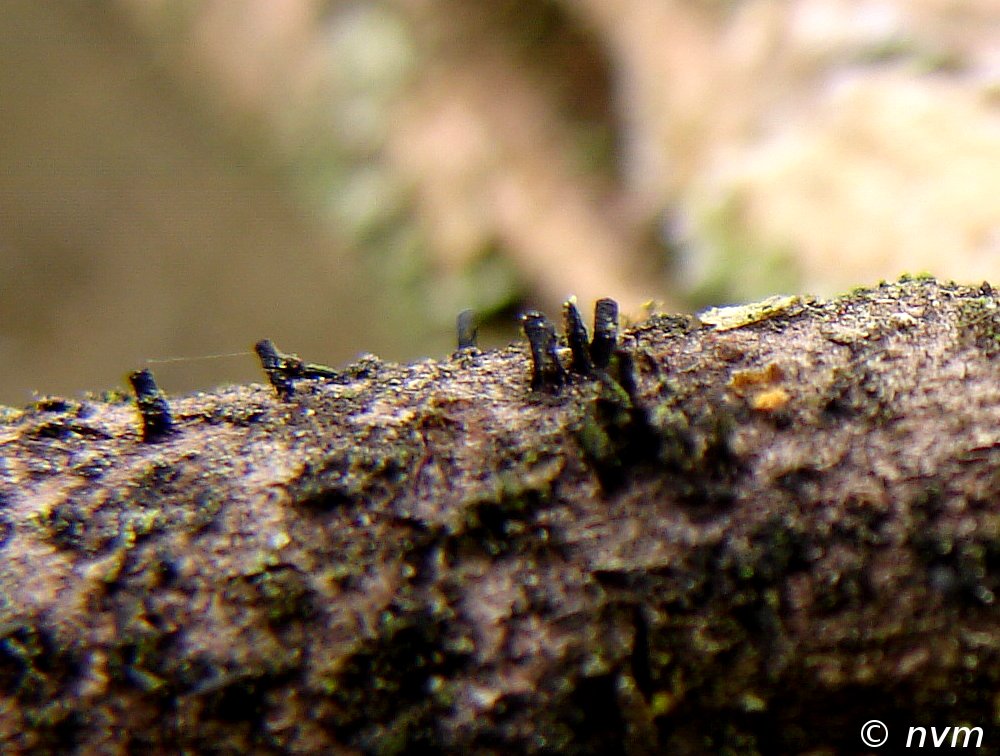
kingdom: Fungi
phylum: Ascomycota
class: Eurotiomycetes
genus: Glyphium
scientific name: Glyphium elatum
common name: kuløkse
